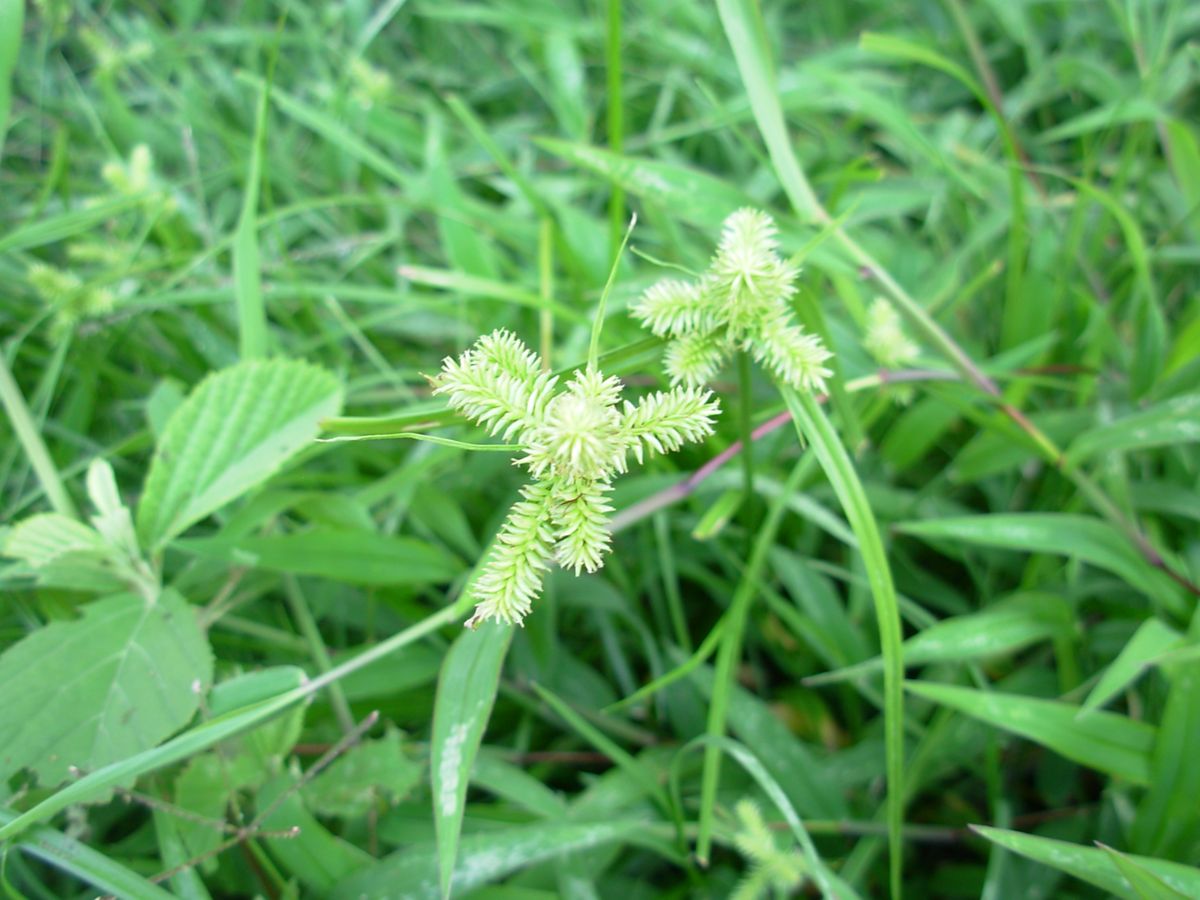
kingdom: Plantae
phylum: Tracheophyta
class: Liliopsida
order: Poales
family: Cyperaceae
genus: Cyperus
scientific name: Cyperus ligularis
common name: Swamp flat sedge
